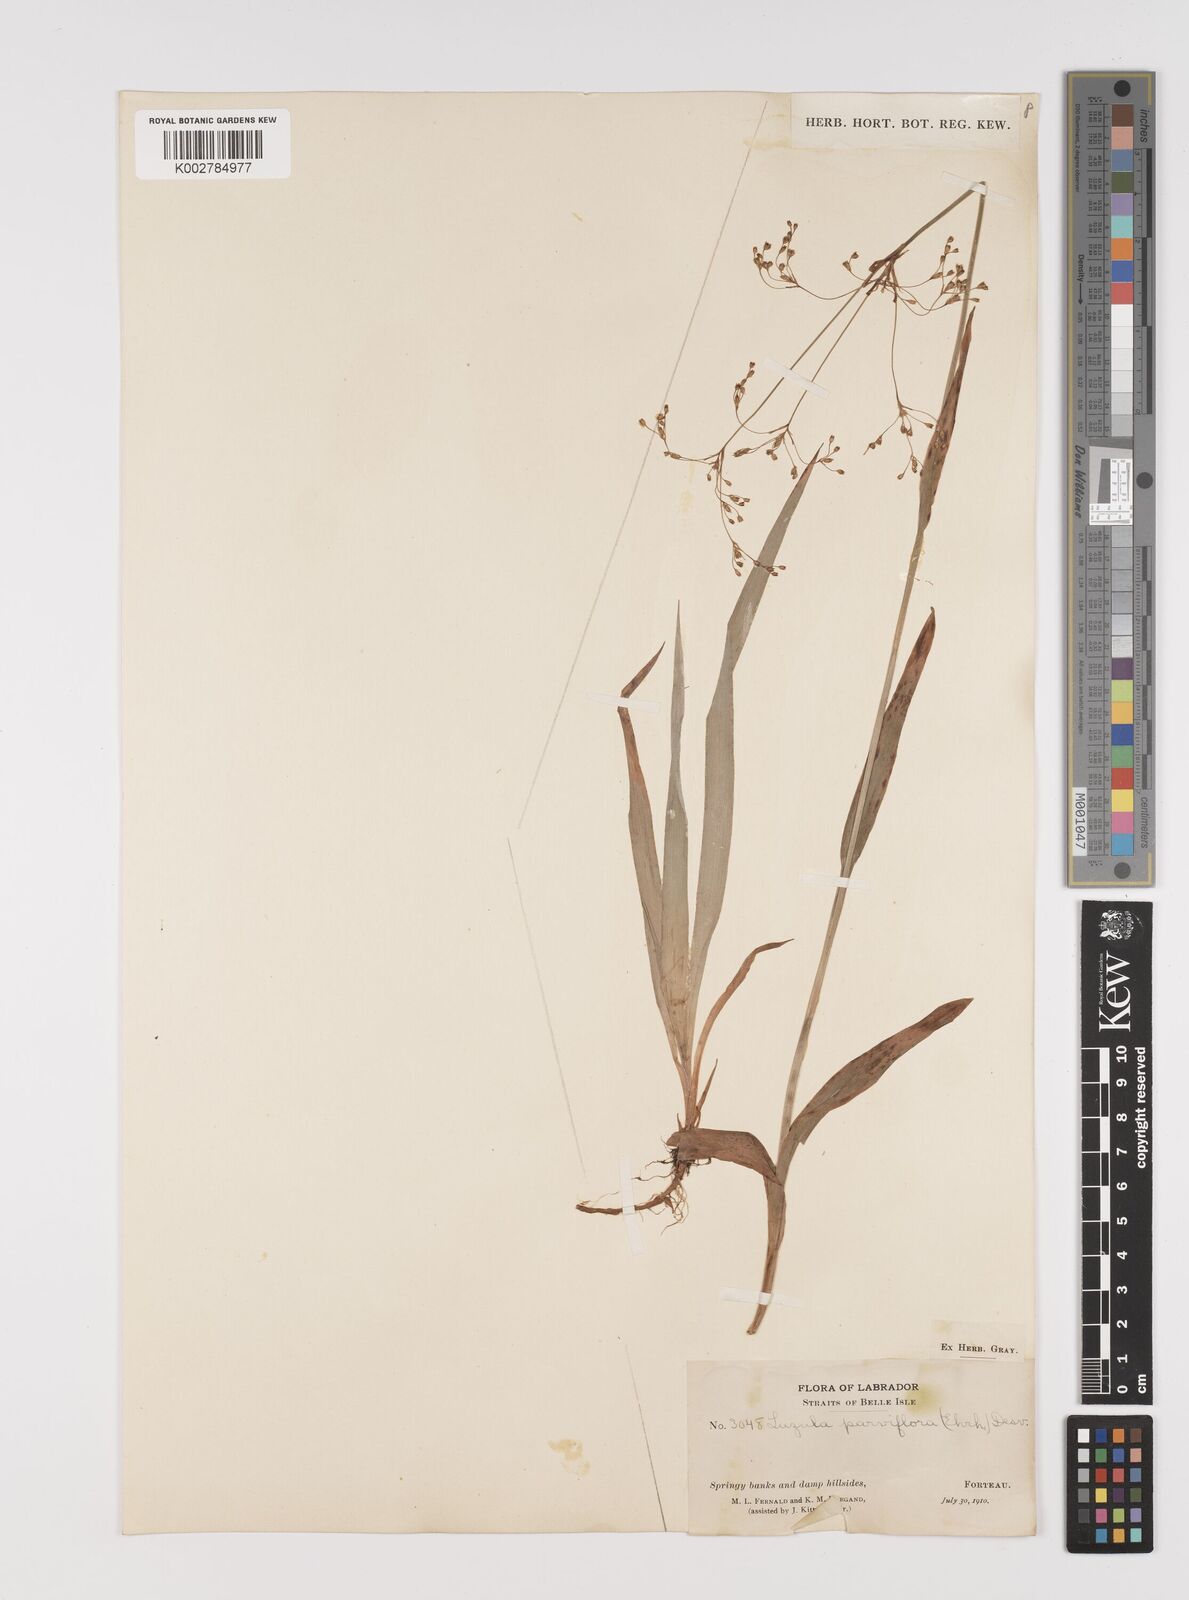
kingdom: Plantae
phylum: Tracheophyta
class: Liliopsida
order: Poales
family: Juncaceae
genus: Luzula
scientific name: Luzula parviflora
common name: Millet woodrush
